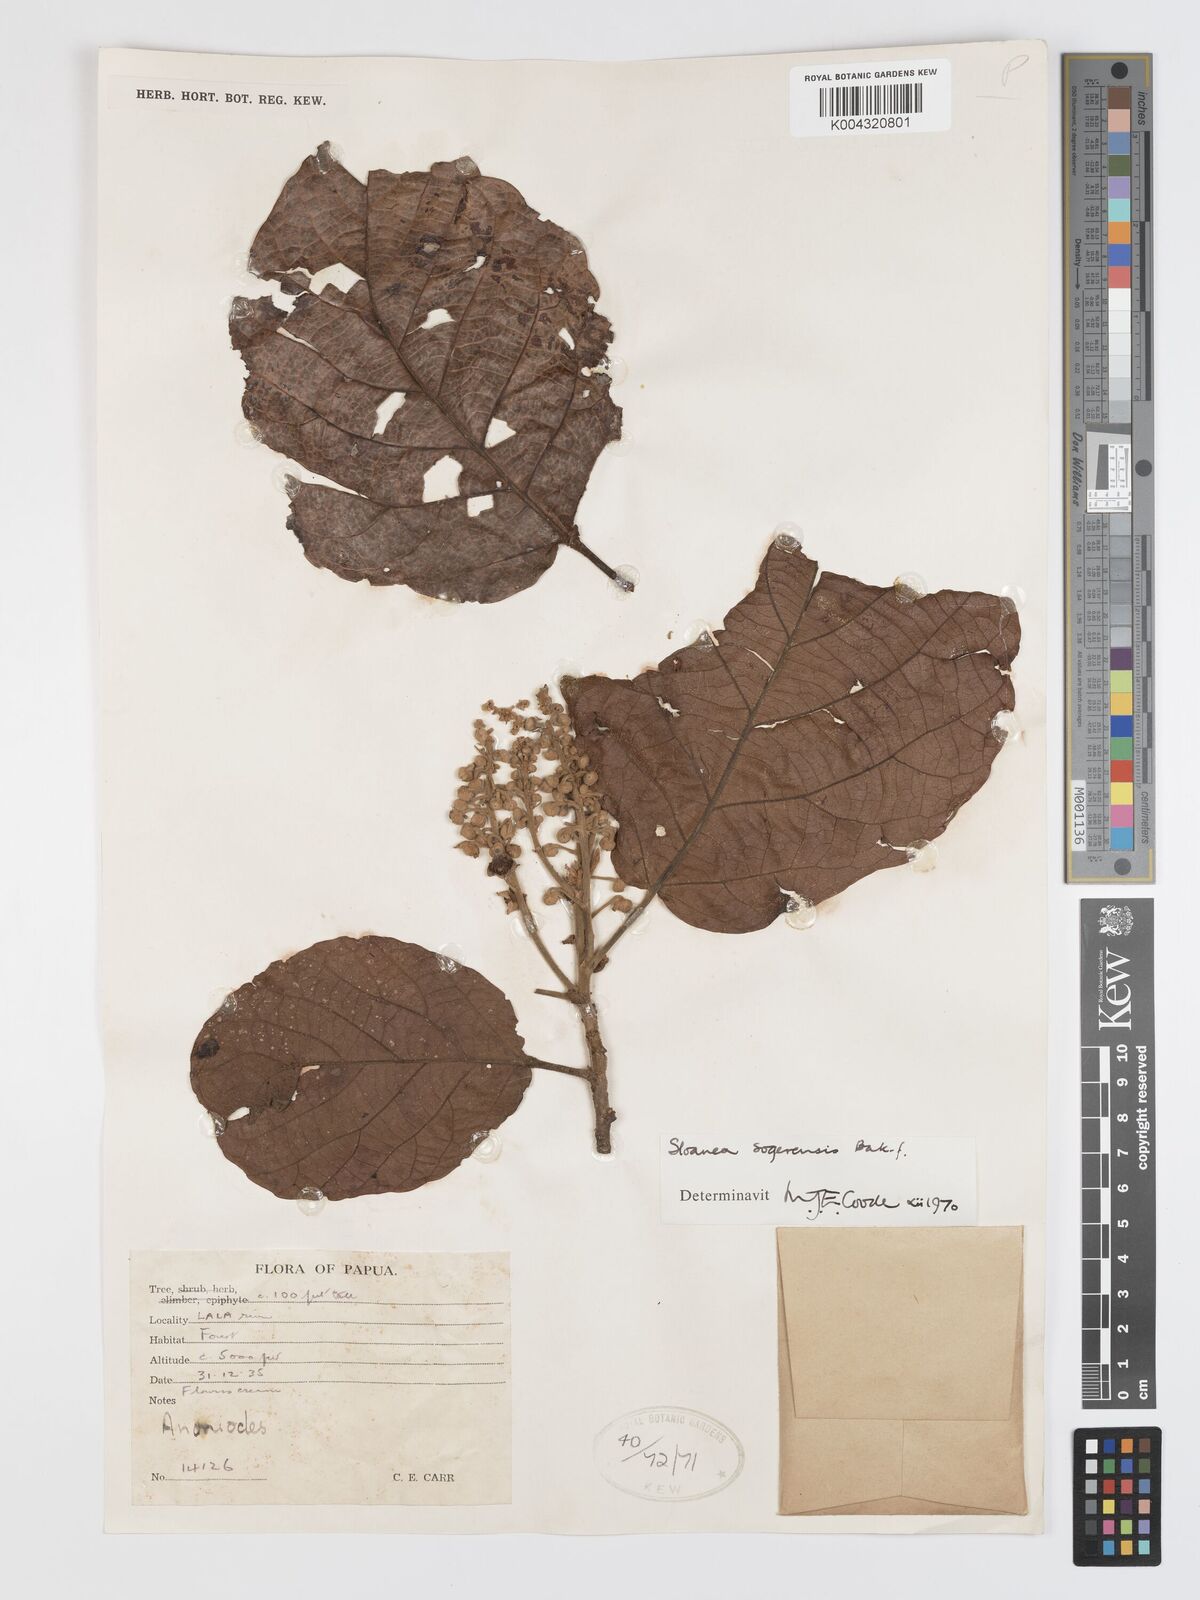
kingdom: Plantae
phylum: Tracheophyta
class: Magnoliopsida
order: Oxalidales
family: Elaeocarpaceae
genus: Sloanea
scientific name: Sloanea sogerensis
